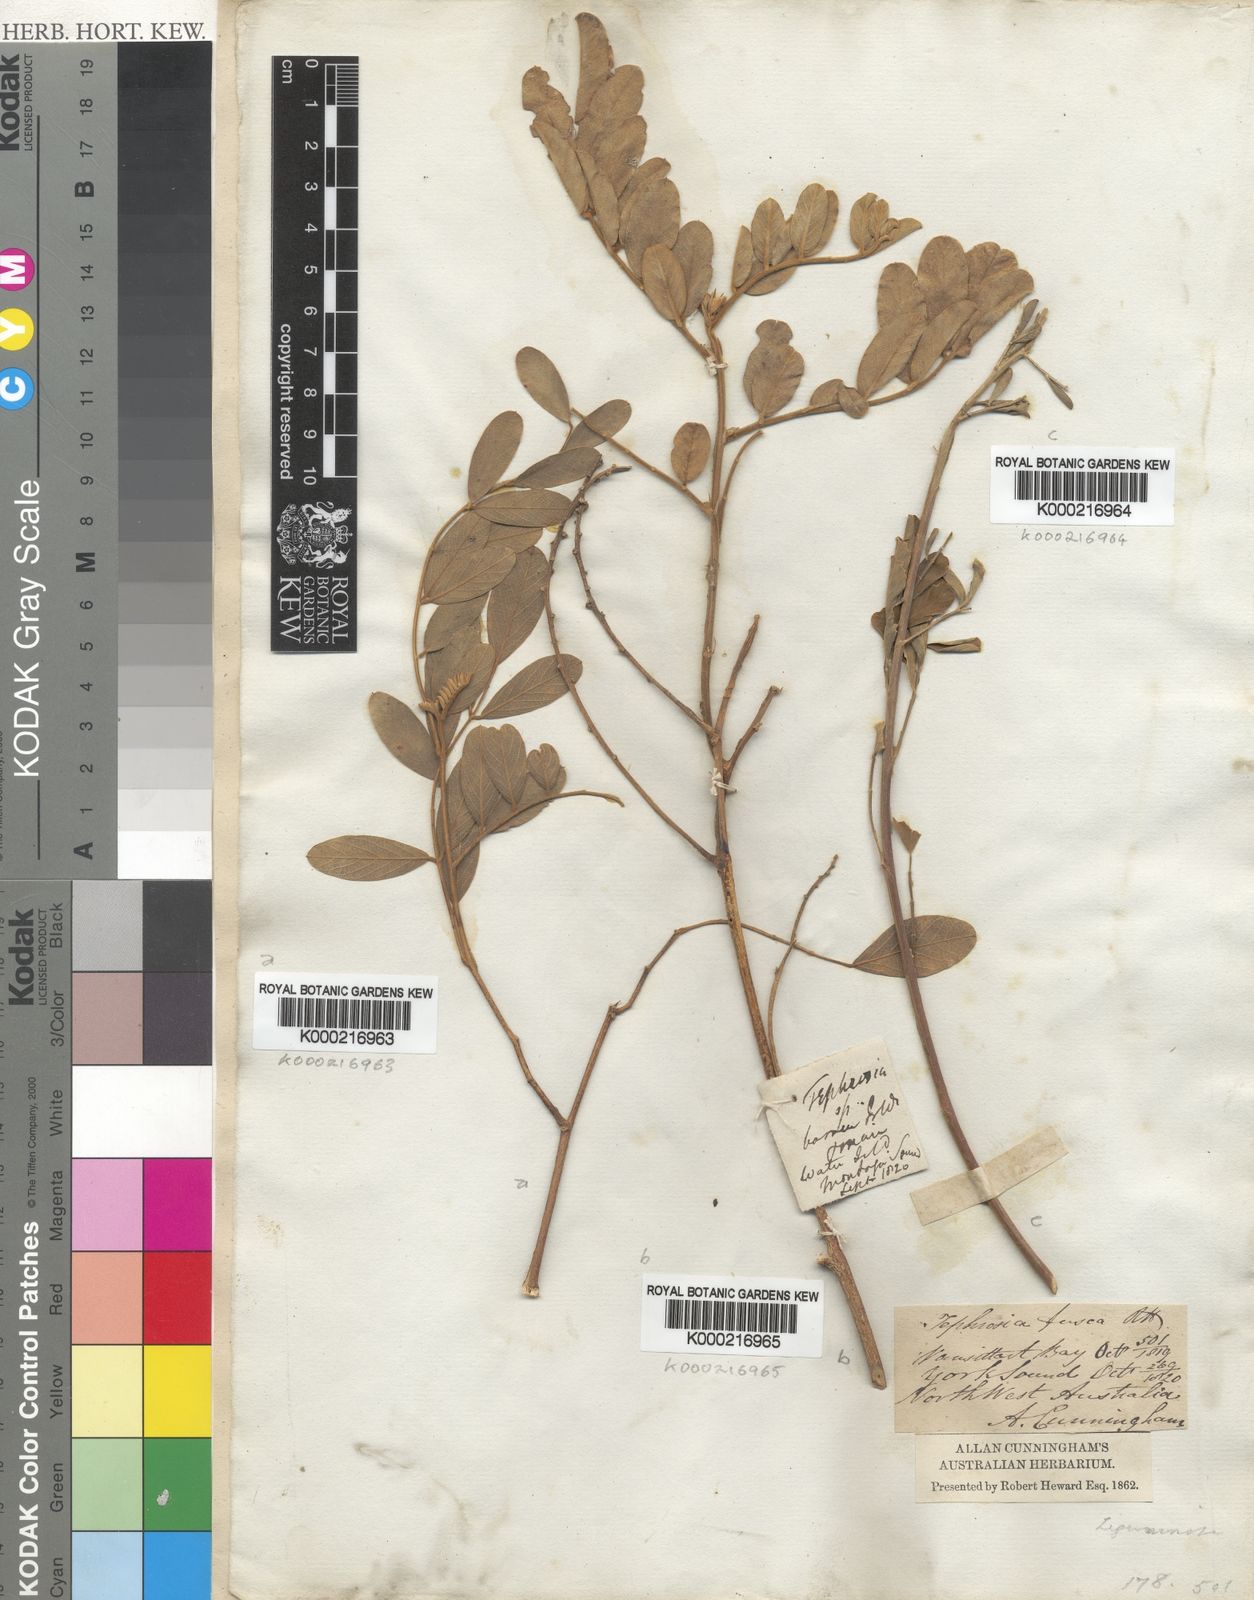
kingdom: Plantae
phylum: Tracheophyta
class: Magnoliopsida
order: Fabales
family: Fabaceae
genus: Tephrosia
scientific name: Tephrosia
